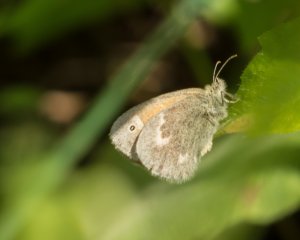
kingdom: Animalia
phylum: Arthropoda
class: Insecta
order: Lepidoptera
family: Nymphalidae
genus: Coenonympha
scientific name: Coenonympha tullia
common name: Large Heath
